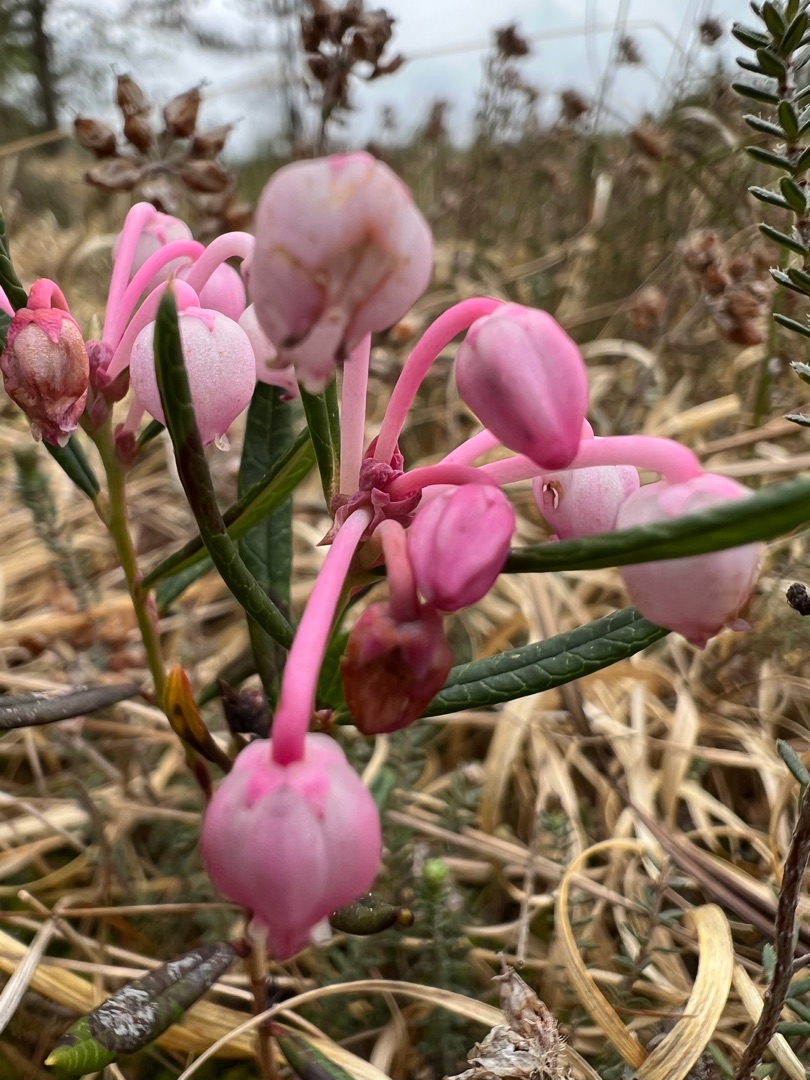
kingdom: Plantae
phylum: Tracheophyta
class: Magnoliopsida
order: Ericales
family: Ericaceae
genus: Andromeda
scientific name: Andromeda polifolia
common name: Rosmarinlyng
